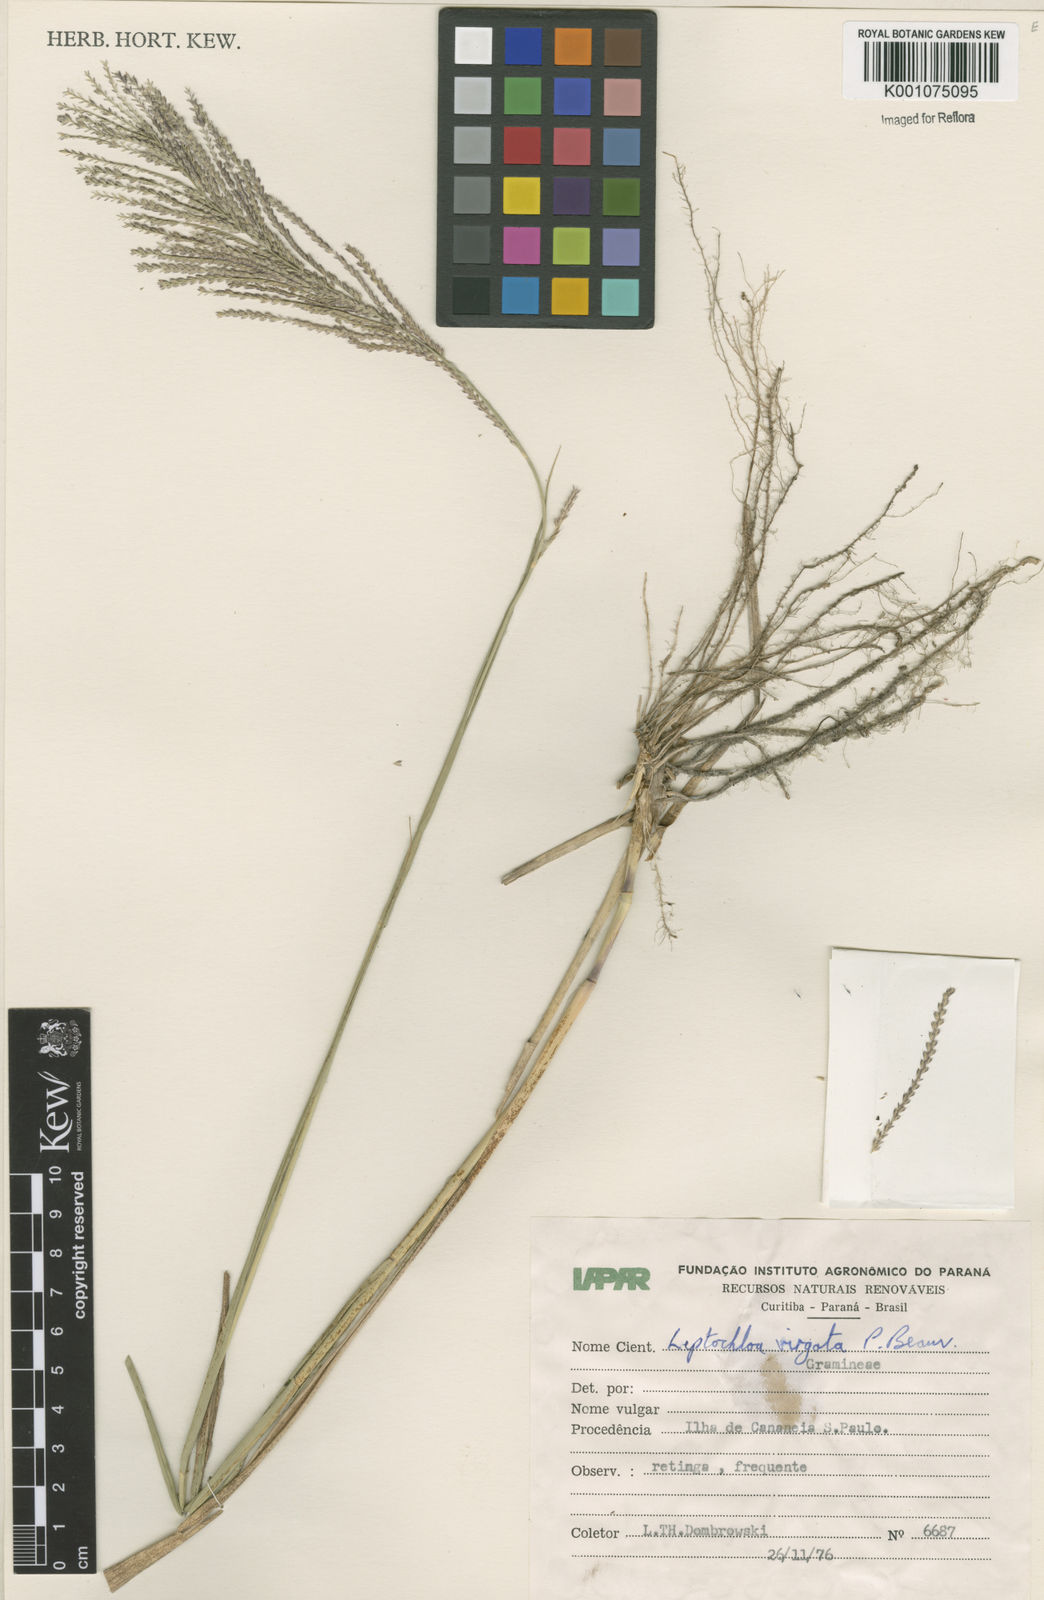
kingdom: Plantae
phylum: Tracheophyta
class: Liliopsida
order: Poales
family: Poaceae
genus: Leptochloa
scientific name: Leptochloa virgata
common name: Tropical sprangletop
